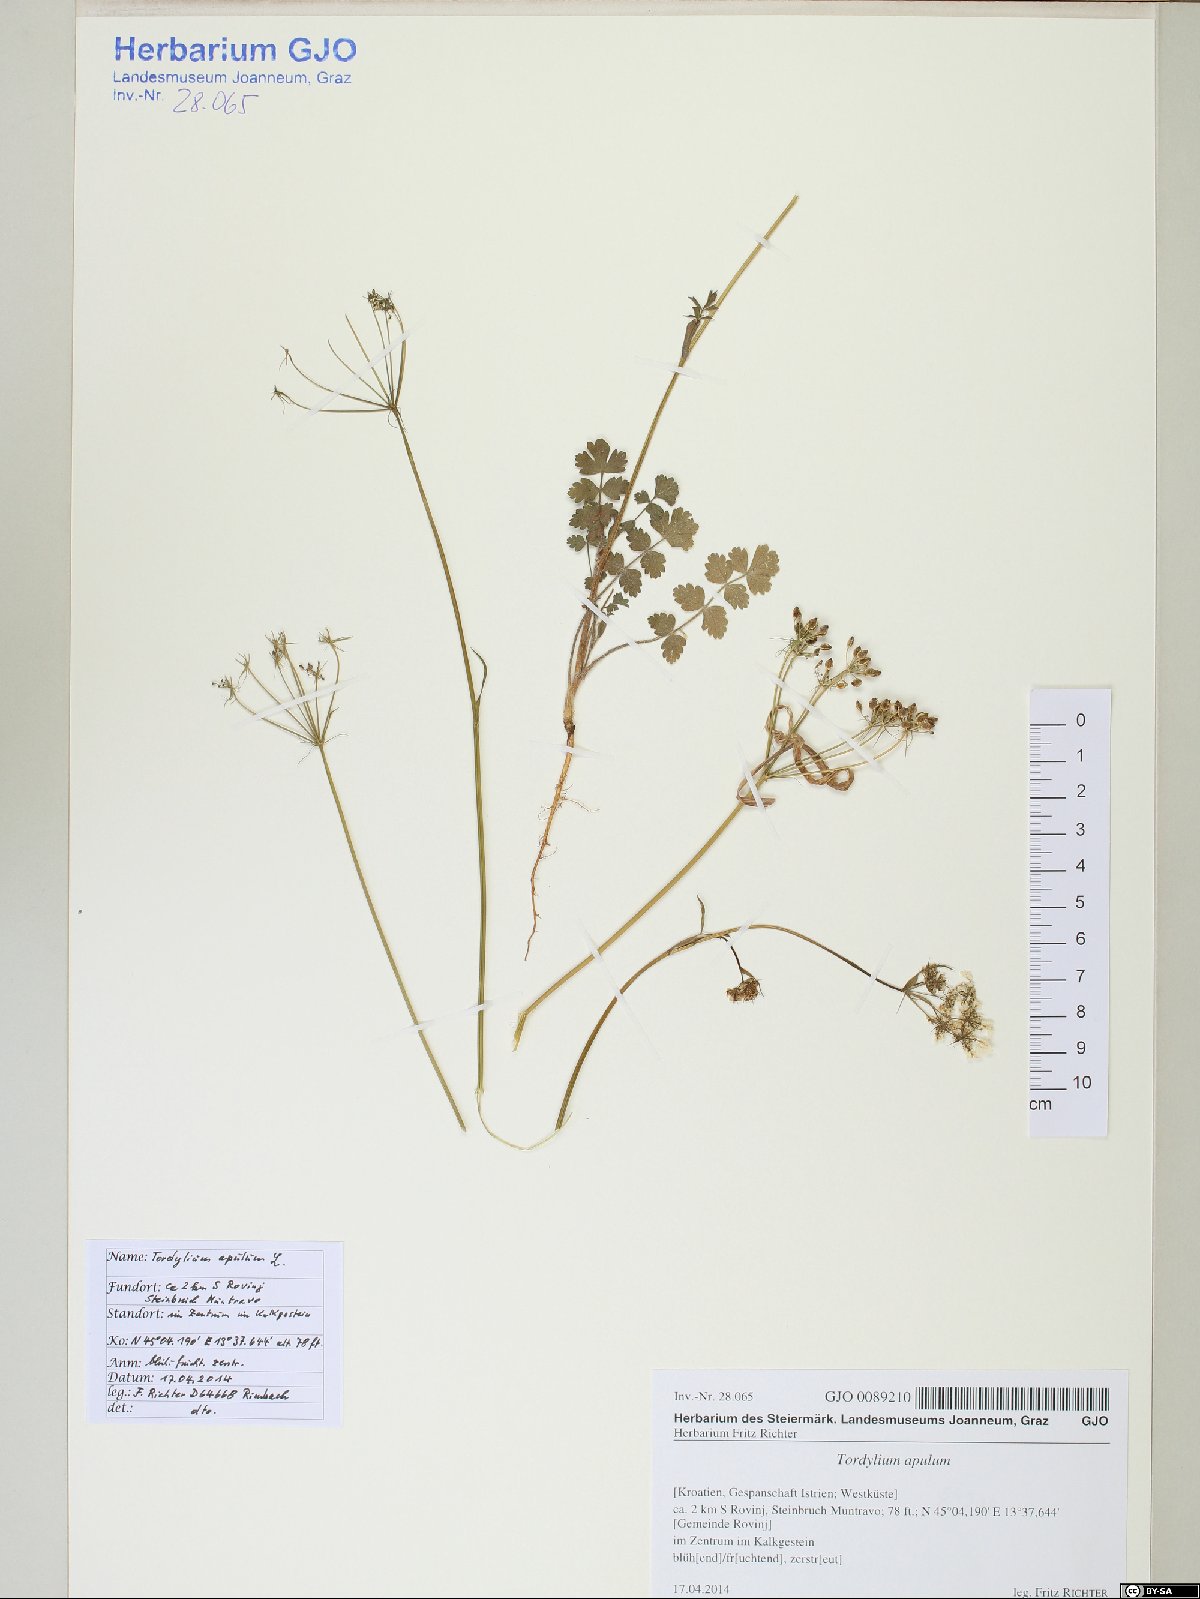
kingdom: Plantae
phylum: Tracheophyta
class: Magnoliopsida
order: Apiales
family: Apiaceae
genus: Tordylium
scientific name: Tordylium apulum
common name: Mediterranean hartwort
